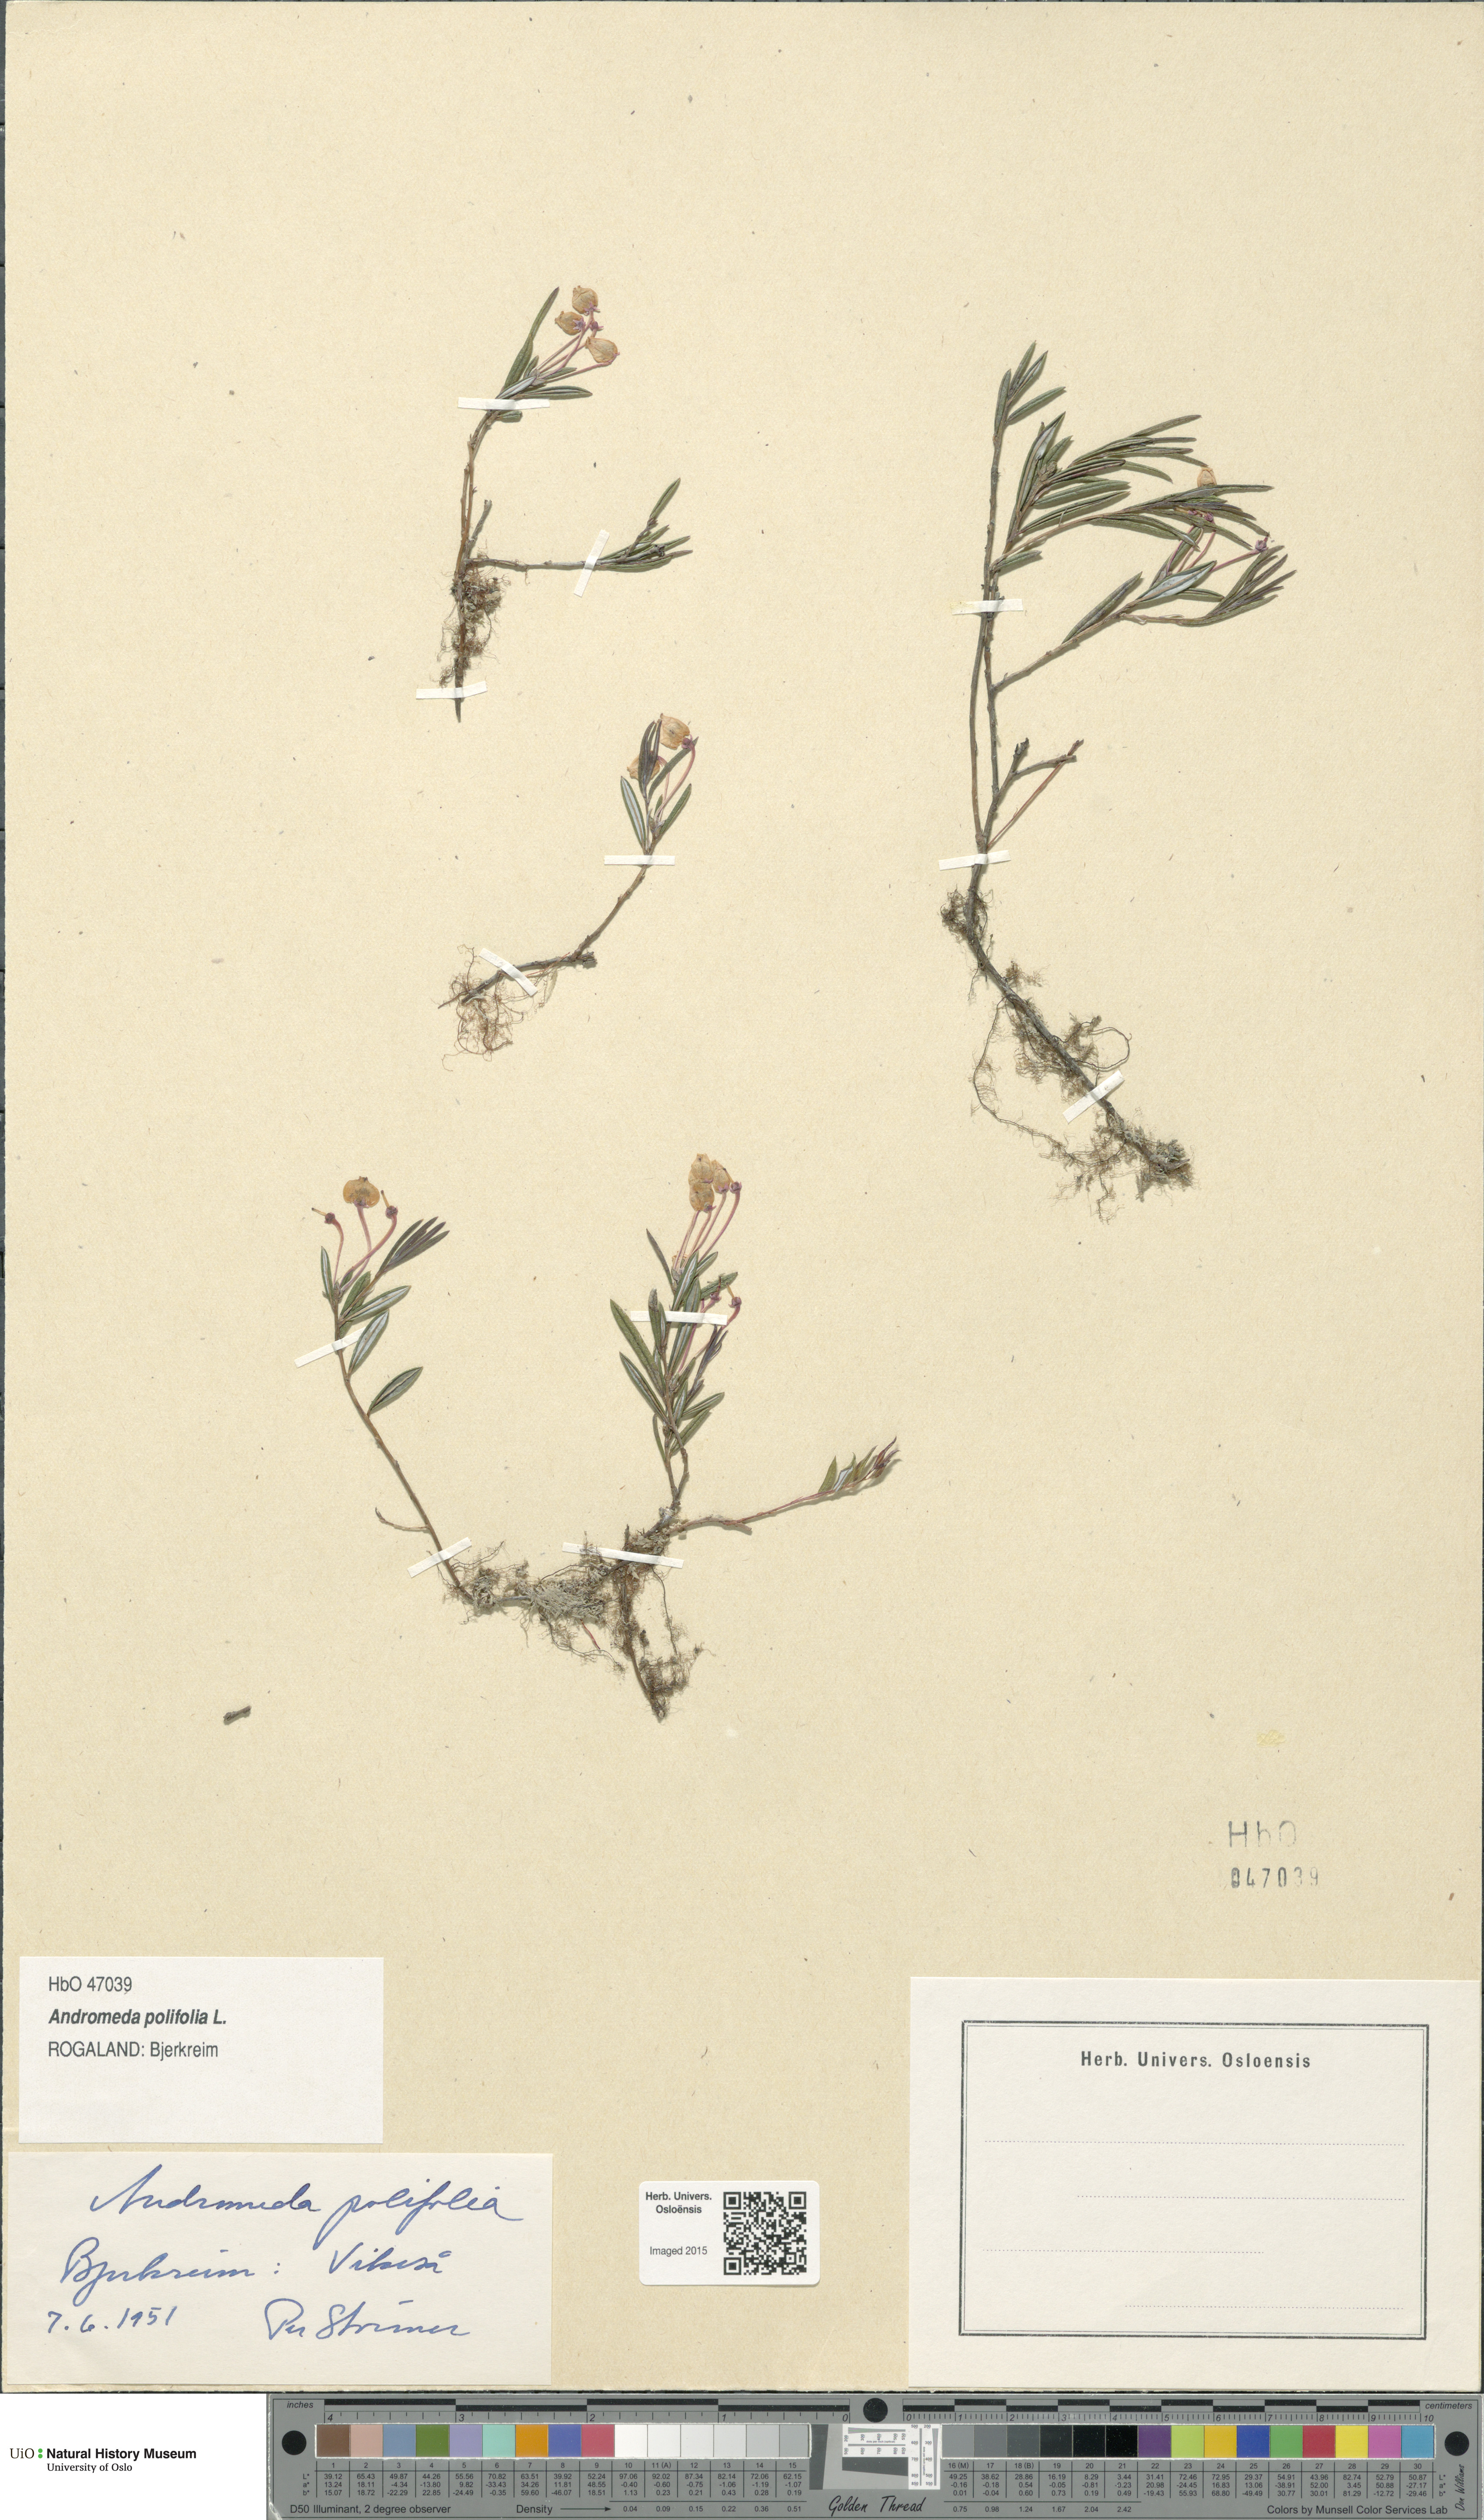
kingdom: Plantae
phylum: Tracheophyta
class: Magnoliopsida
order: Ericales
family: Ericaceae
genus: Andromeda
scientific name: Andromeda polifolia
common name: Bog-rosemary
